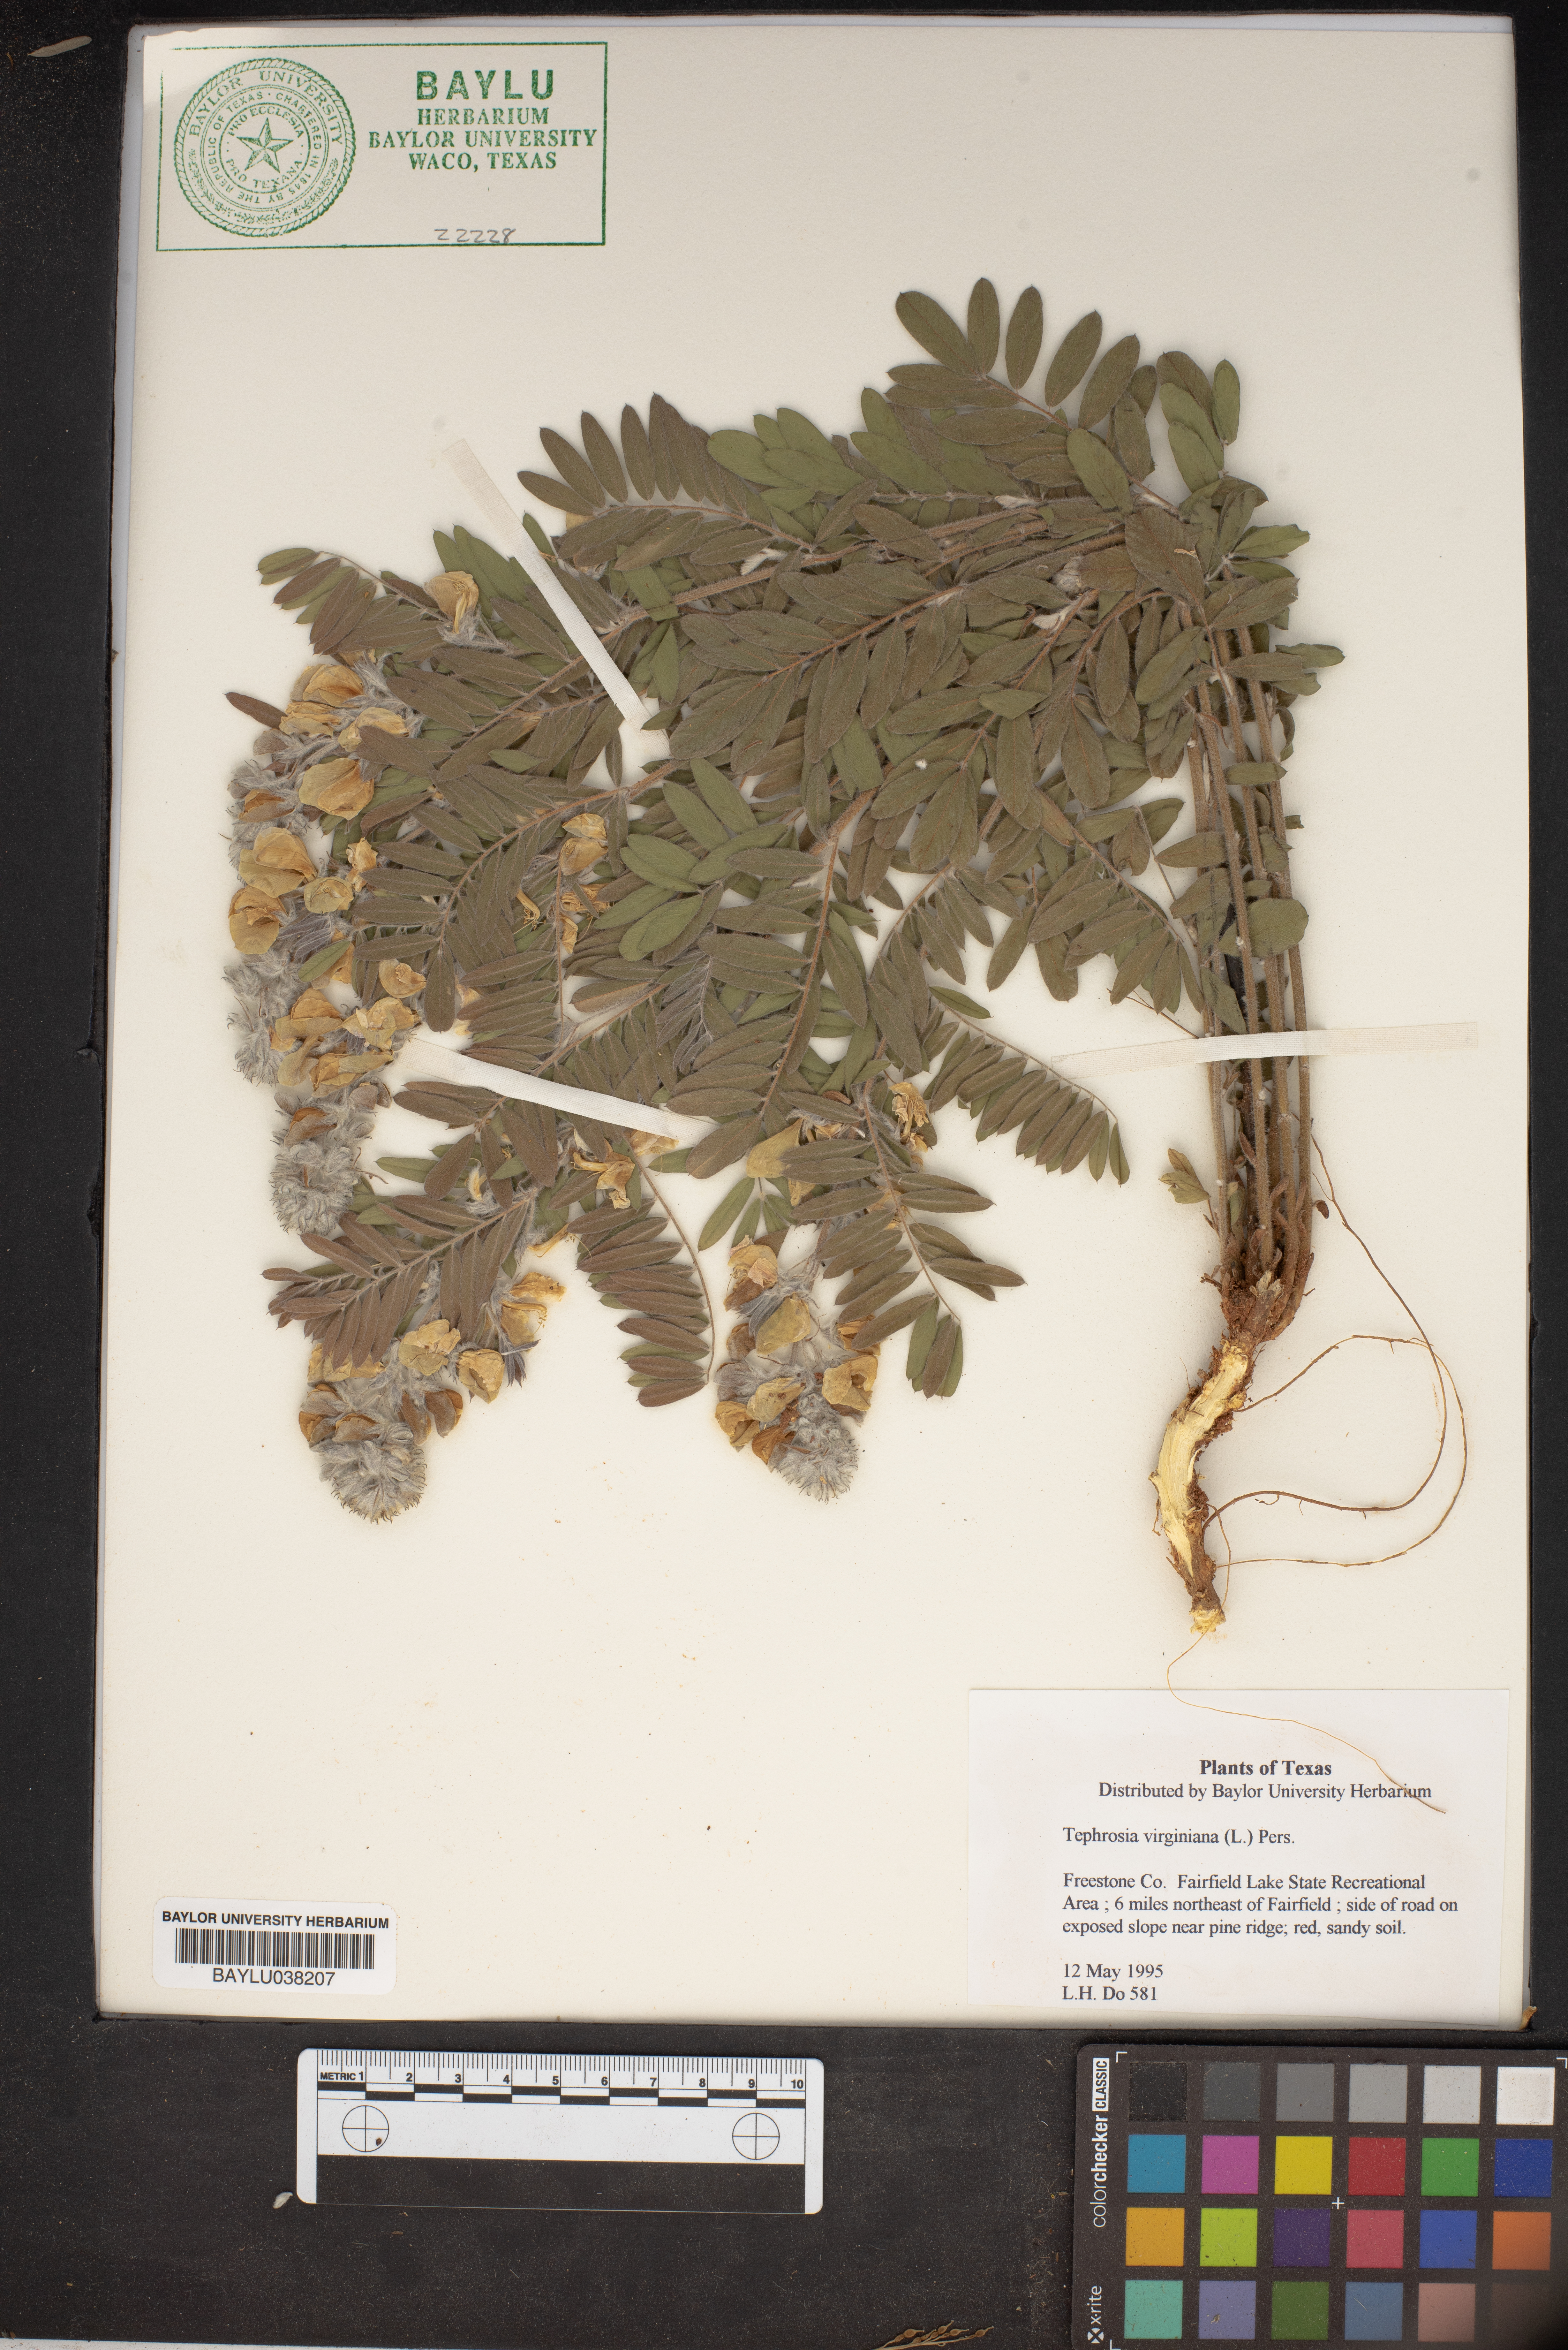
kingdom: Plantae
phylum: Tracheophyta
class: Magnoliopsida
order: Fabales
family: Fabaceae
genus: Tephrosia
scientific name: Tephrosia virginiana
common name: Rabbit-pea
